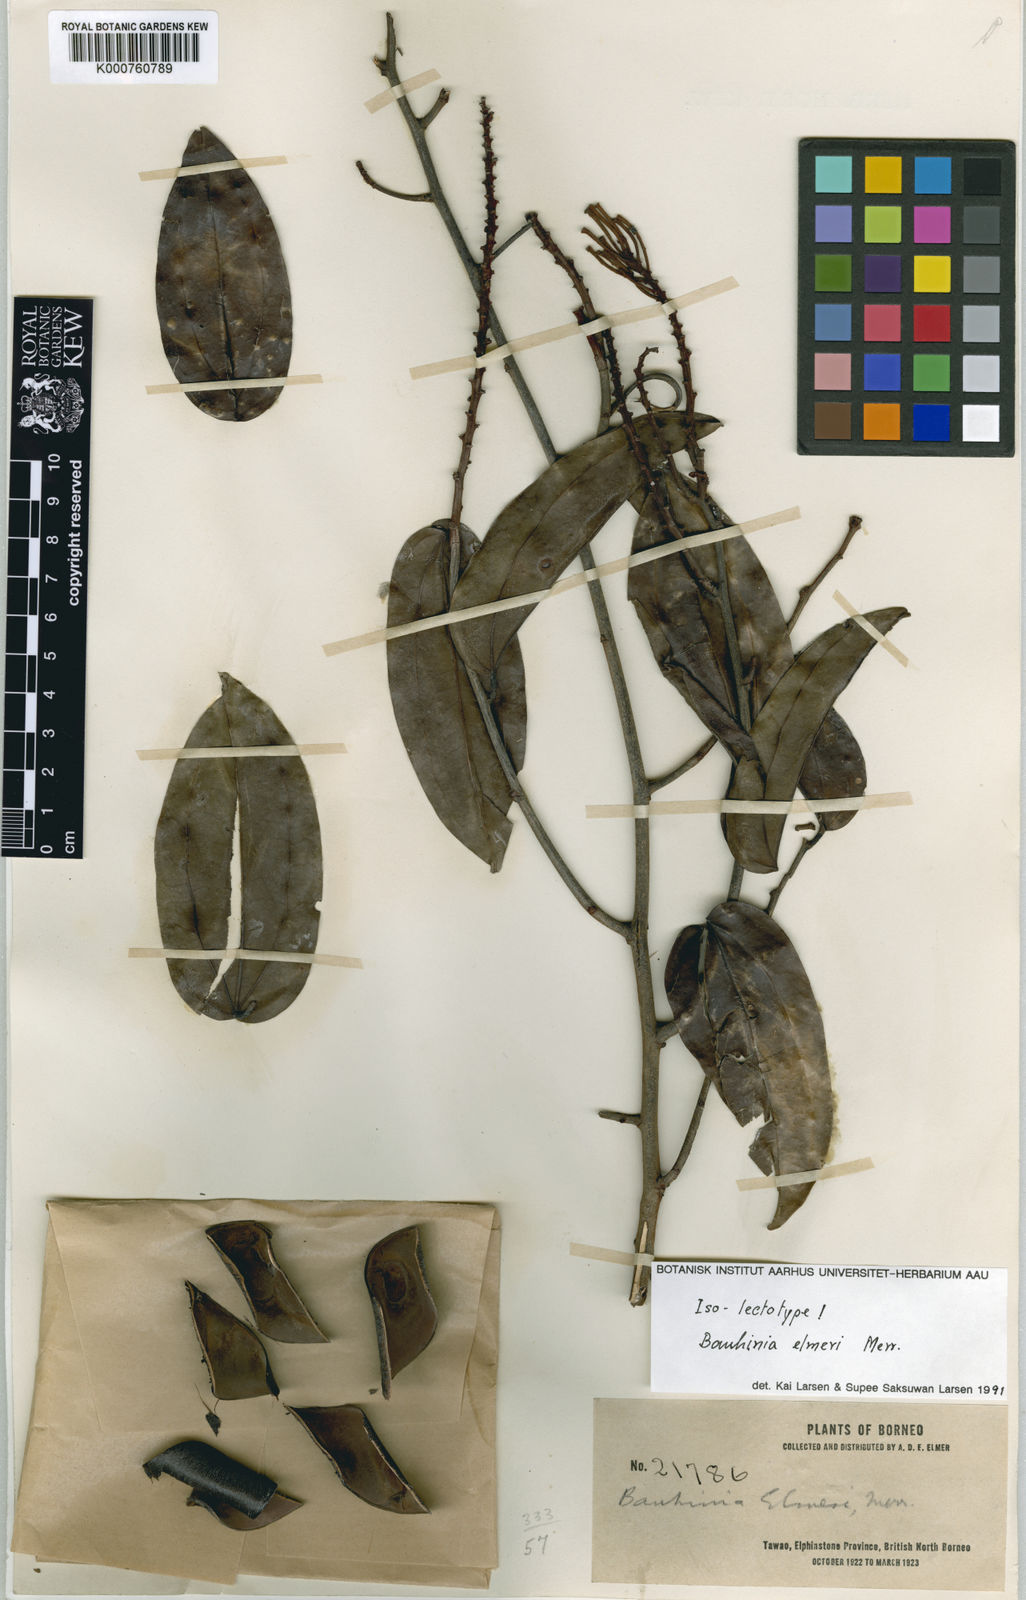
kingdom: Plantae
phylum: Tracheophyta
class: Magnoliopsida
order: Fabales
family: Fabaceae
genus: Phanera
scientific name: Phanera elmeri
